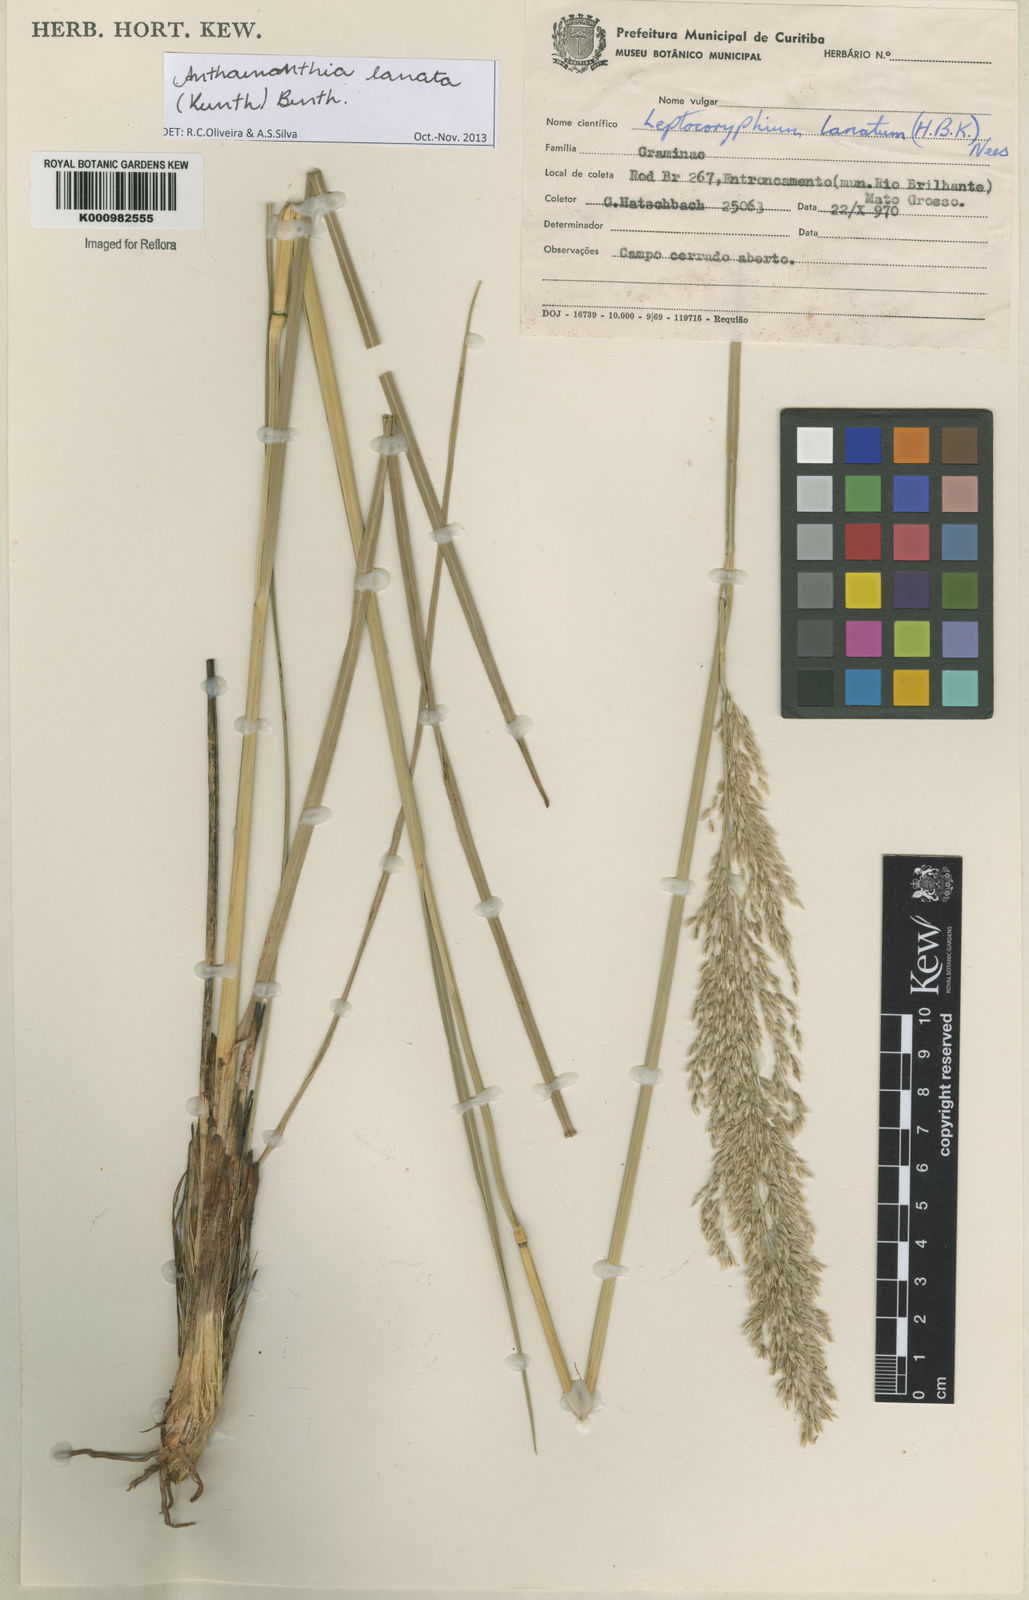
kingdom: Plantae
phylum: Tracheophyta
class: Liliopsida
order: Poales
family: Poaceae
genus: Anthenantia
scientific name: Anthenantia lanata
